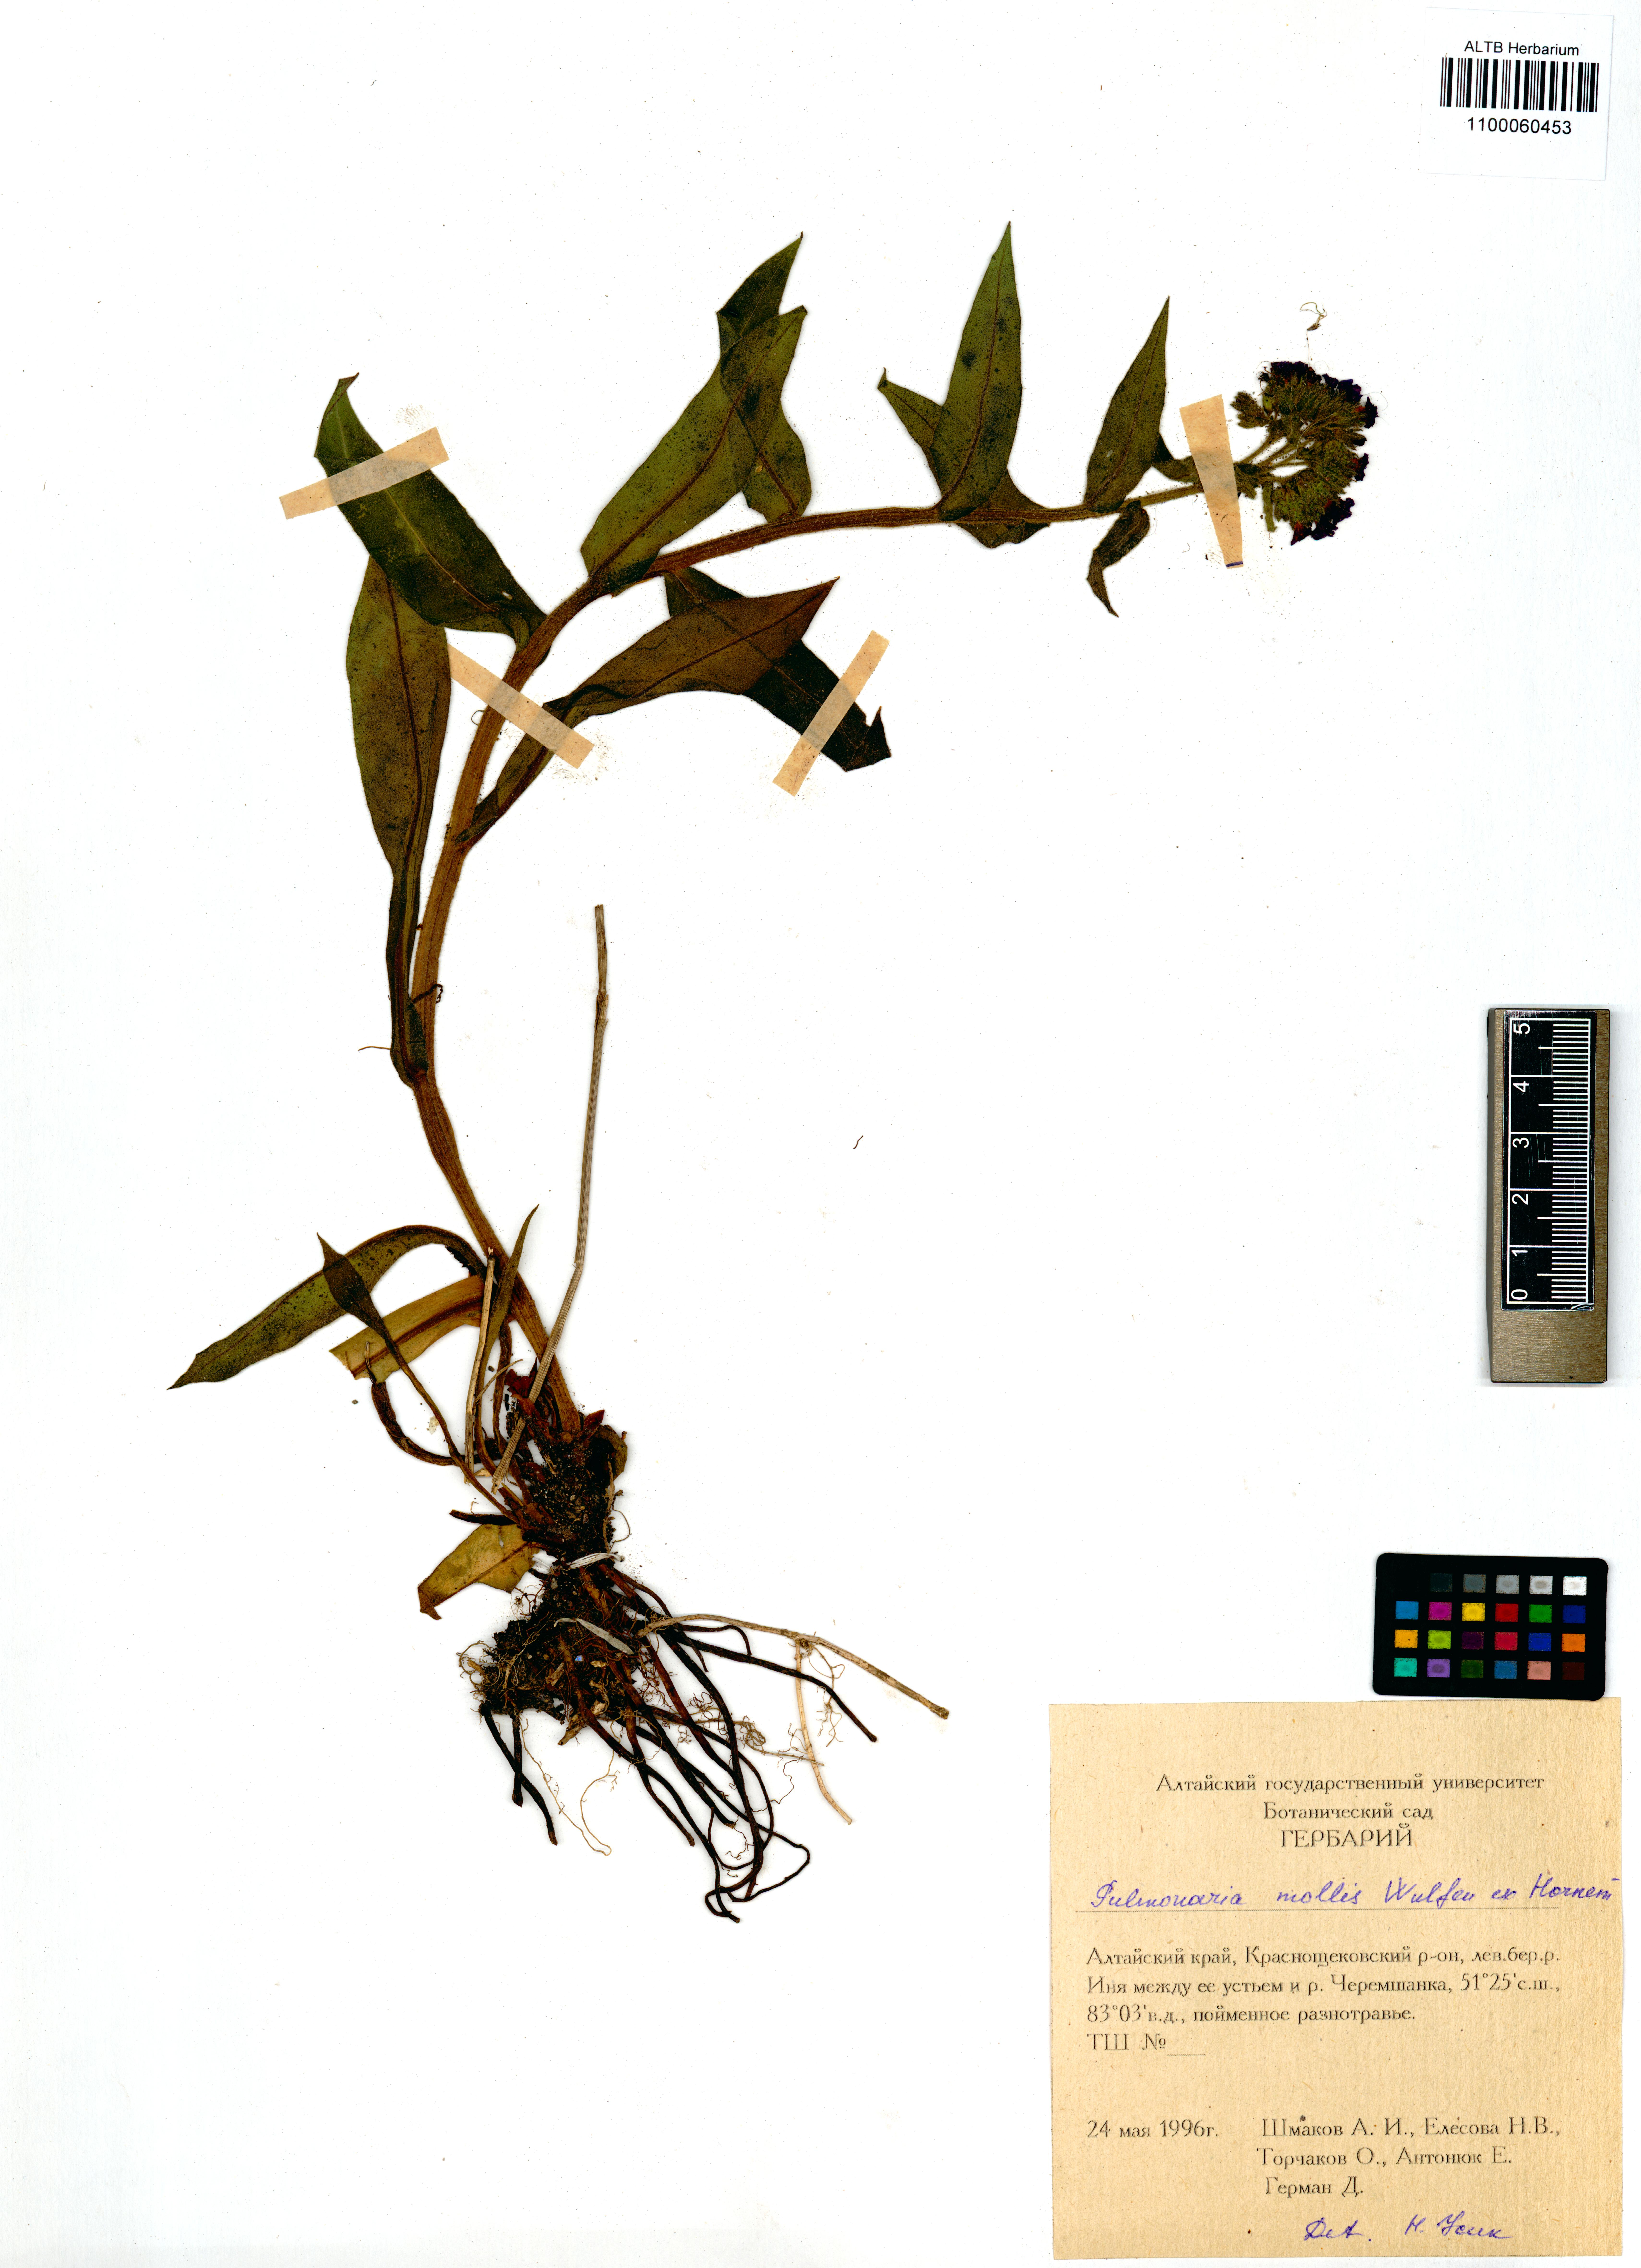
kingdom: Plantae
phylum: Tracheophyta
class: Magnoliopsida
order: Boraginales
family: Boraginaceae
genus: Pulmonaria
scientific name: Pulmonaria mollis
